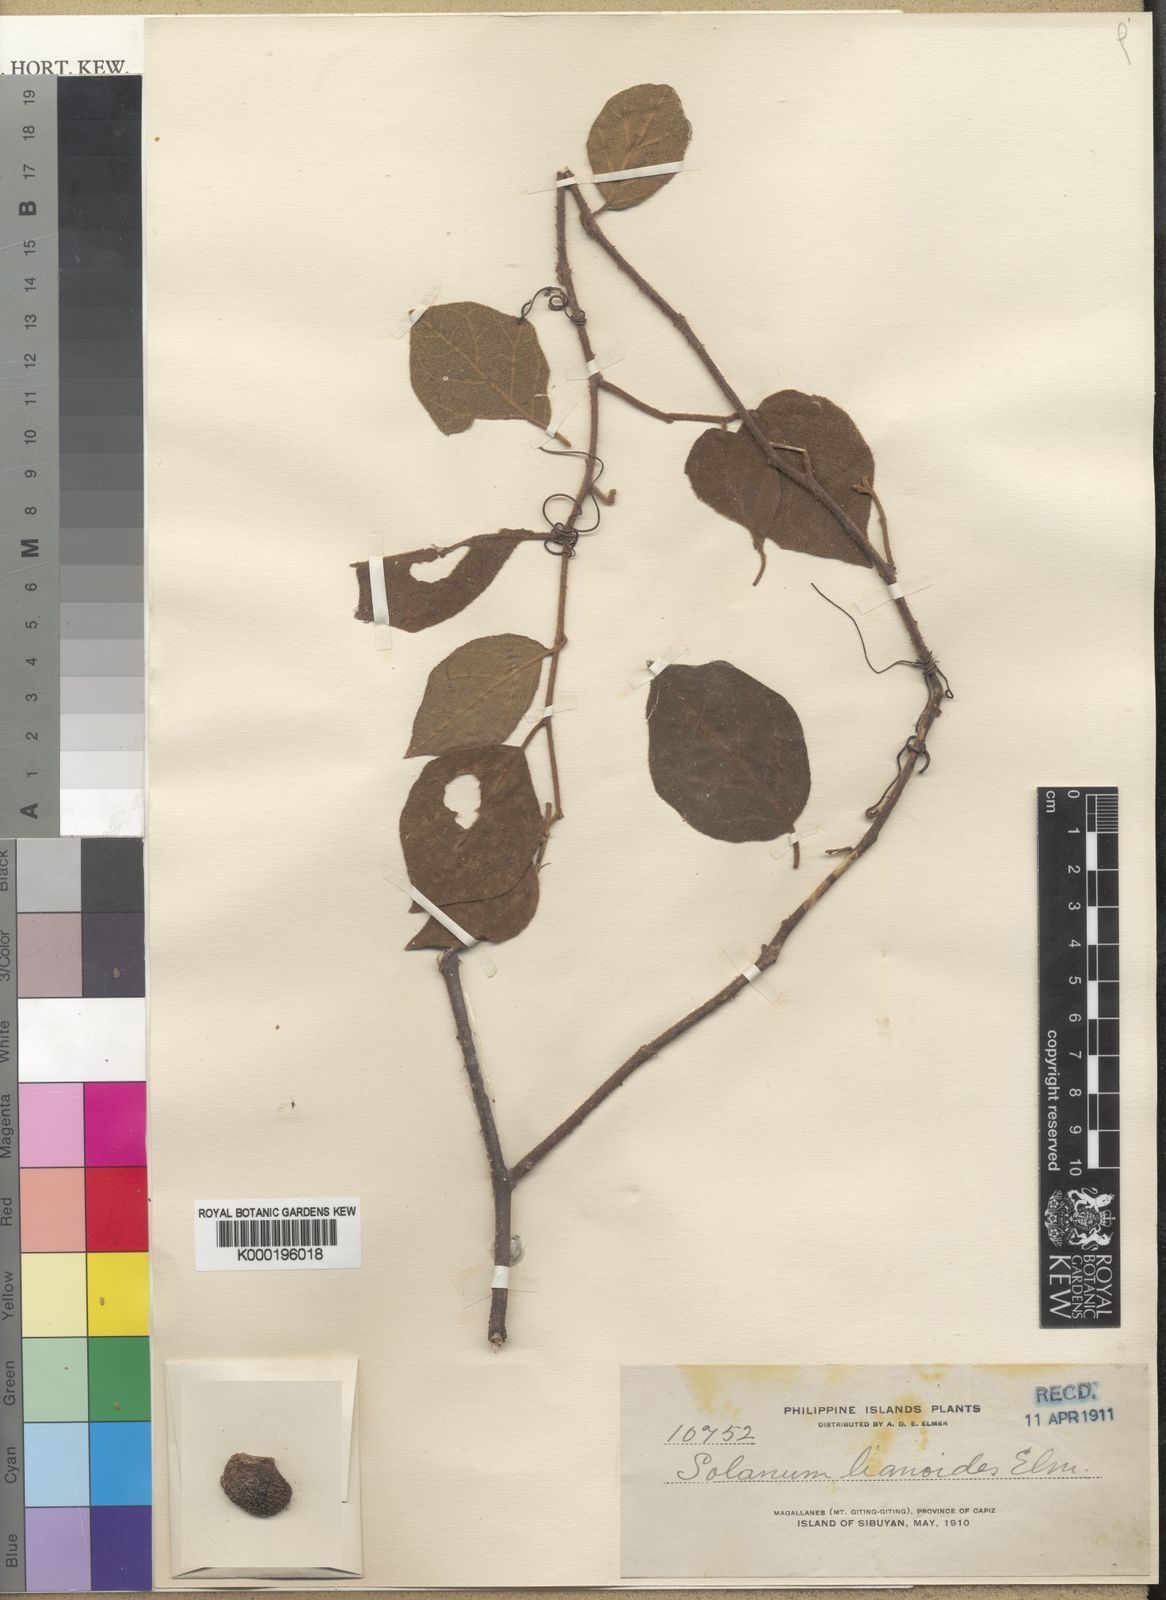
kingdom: Plantae
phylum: Tracheophyta
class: Magnoliopsida
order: Solanales
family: Solanaceae
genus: Solanum
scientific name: Solanum schefferi
